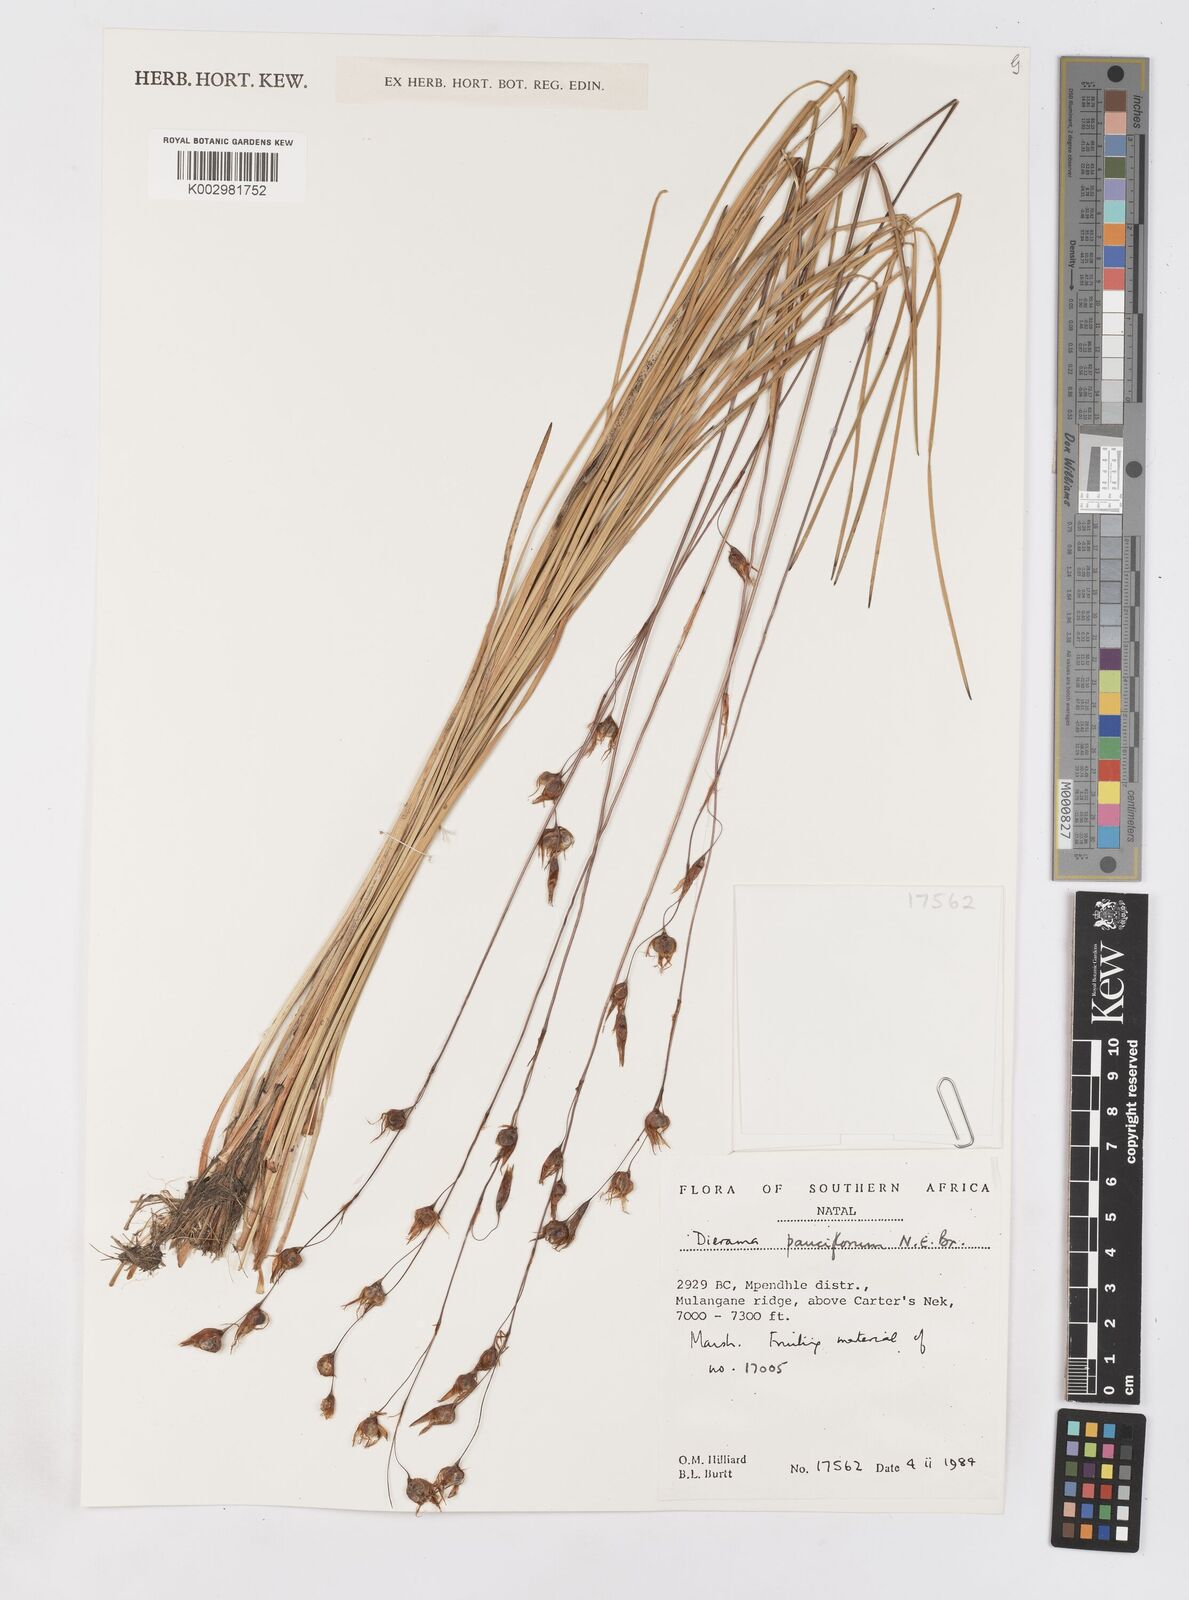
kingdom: Plantae
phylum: Tracheophyta
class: Liliopsida
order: Asparagales
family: Iridaceae
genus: Dierama
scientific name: Dierama pauciflorum
